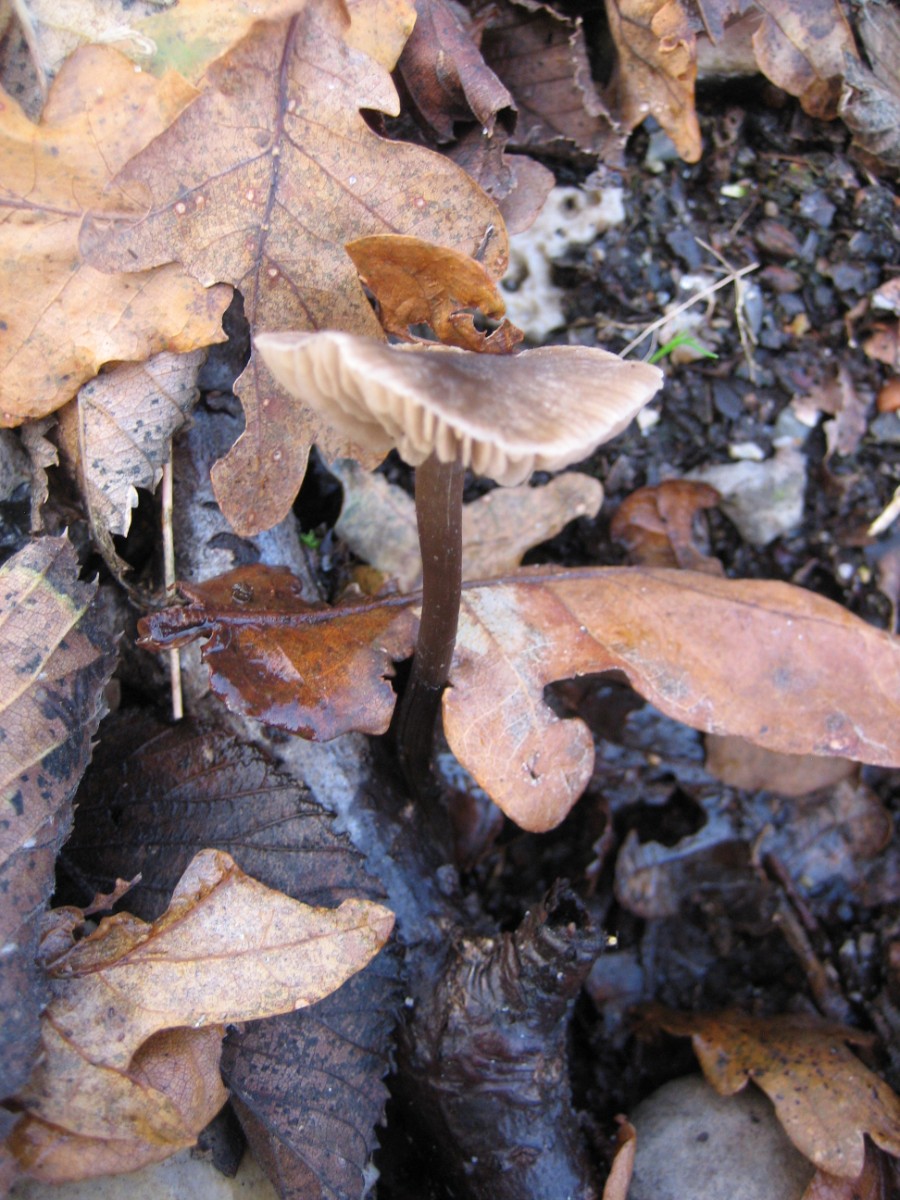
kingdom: Fungi
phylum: Basidiomycota
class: Agaricomycetes
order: Agaricales
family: Entolomataceae
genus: Entoloma
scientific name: Entoloma
